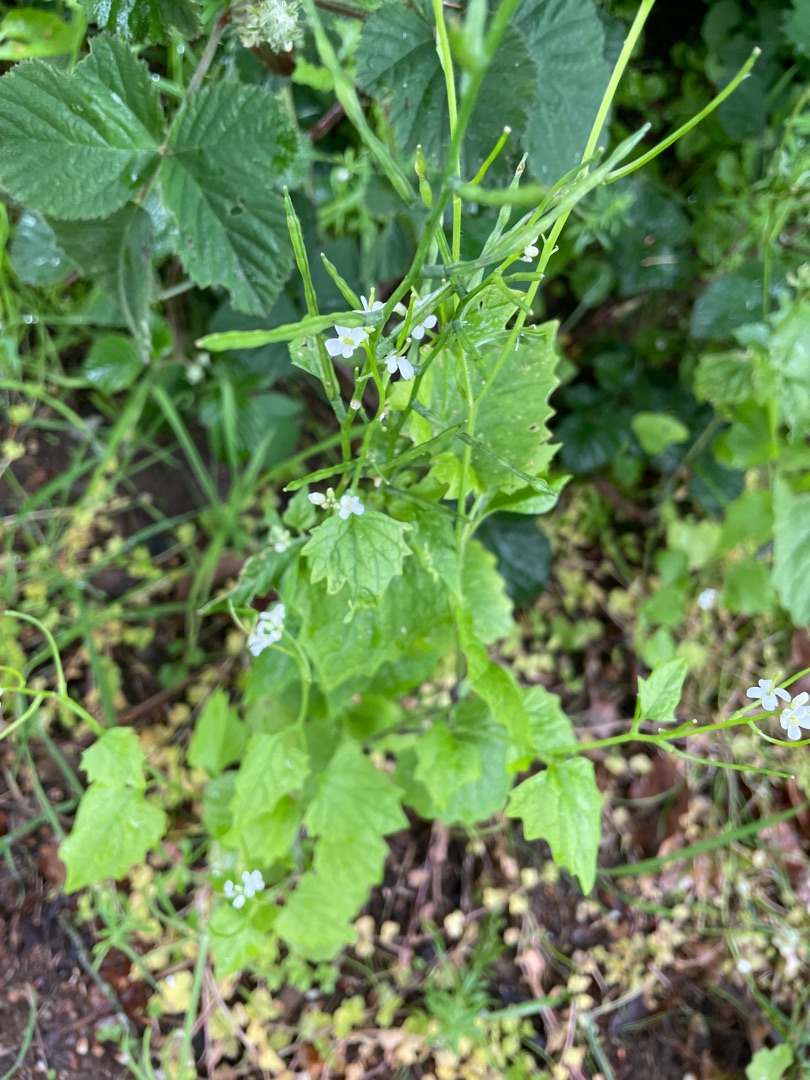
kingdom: Plantae
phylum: Tracheophyta
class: Magnoliopsida
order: Brassicales
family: Brassicaceae
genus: Alliaria
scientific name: Alliaria petiolata
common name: Løgkarse
